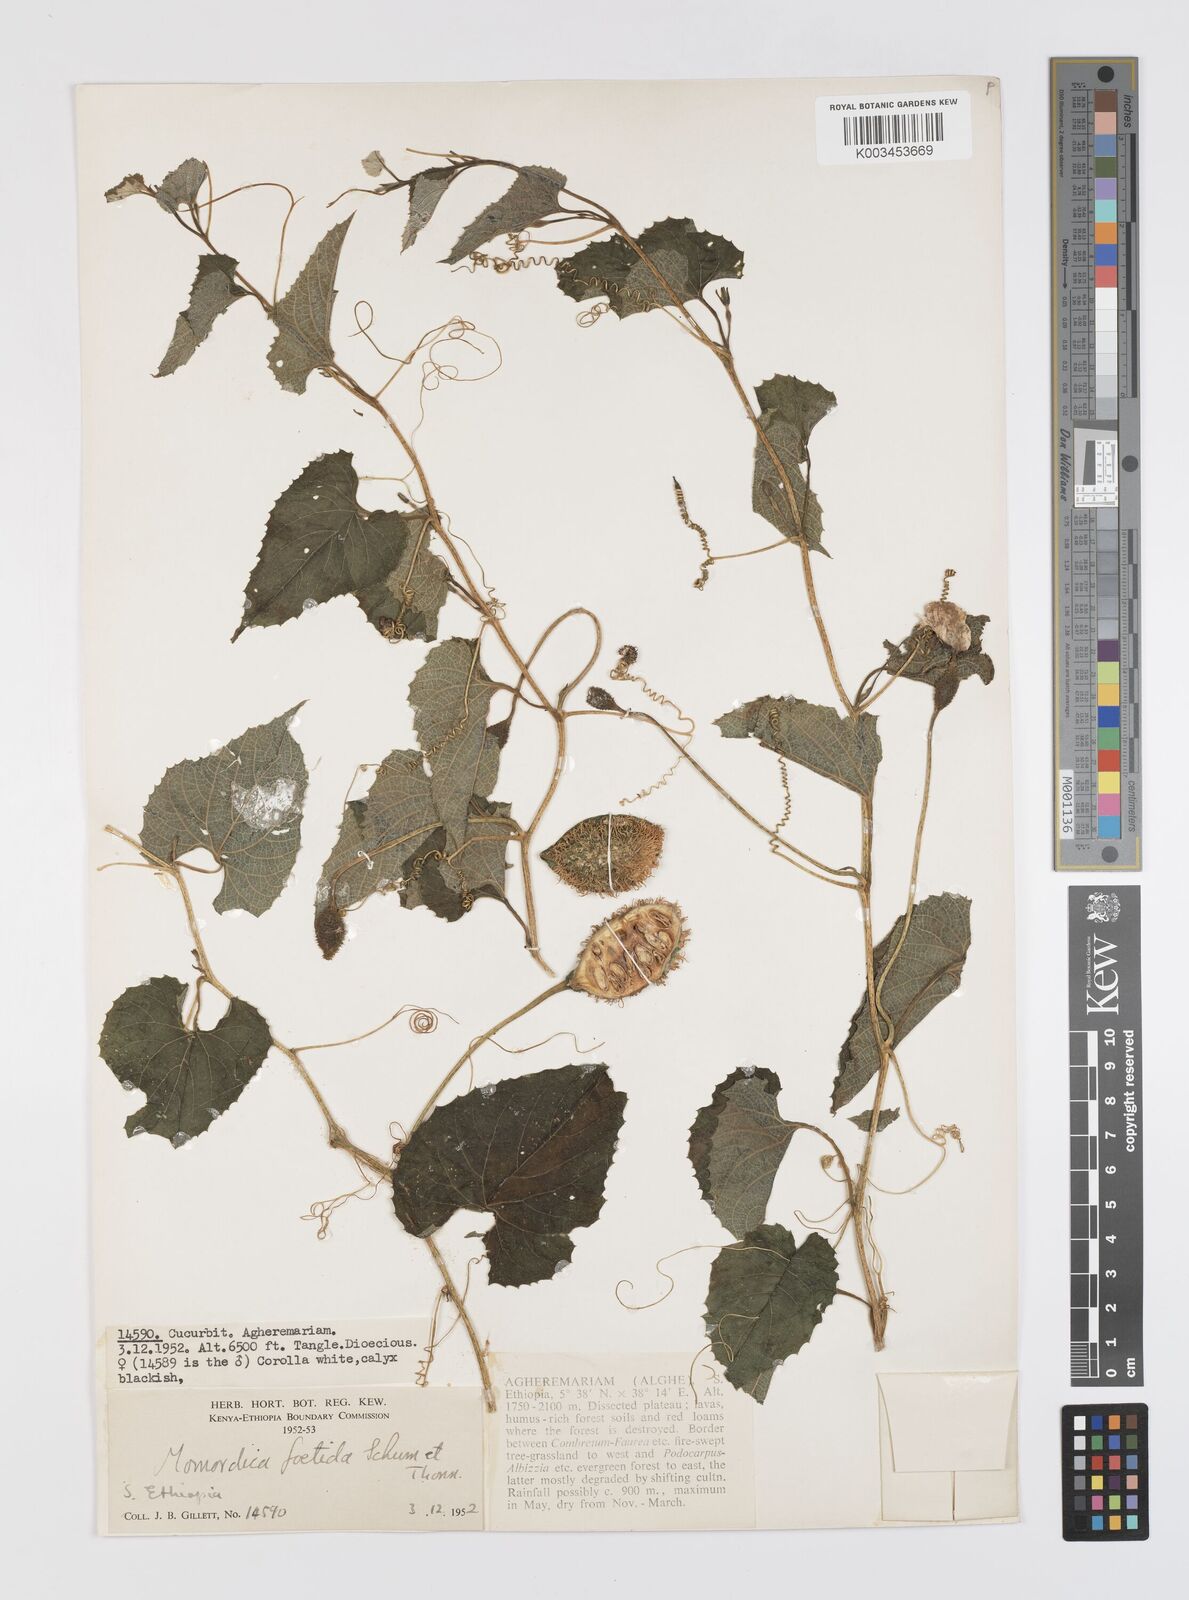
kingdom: Plantae
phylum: Tracheophyta
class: Magnoliopsida
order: Cucurbitales
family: Cucurbitaceae
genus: Momordica
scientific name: Momordica foetida
